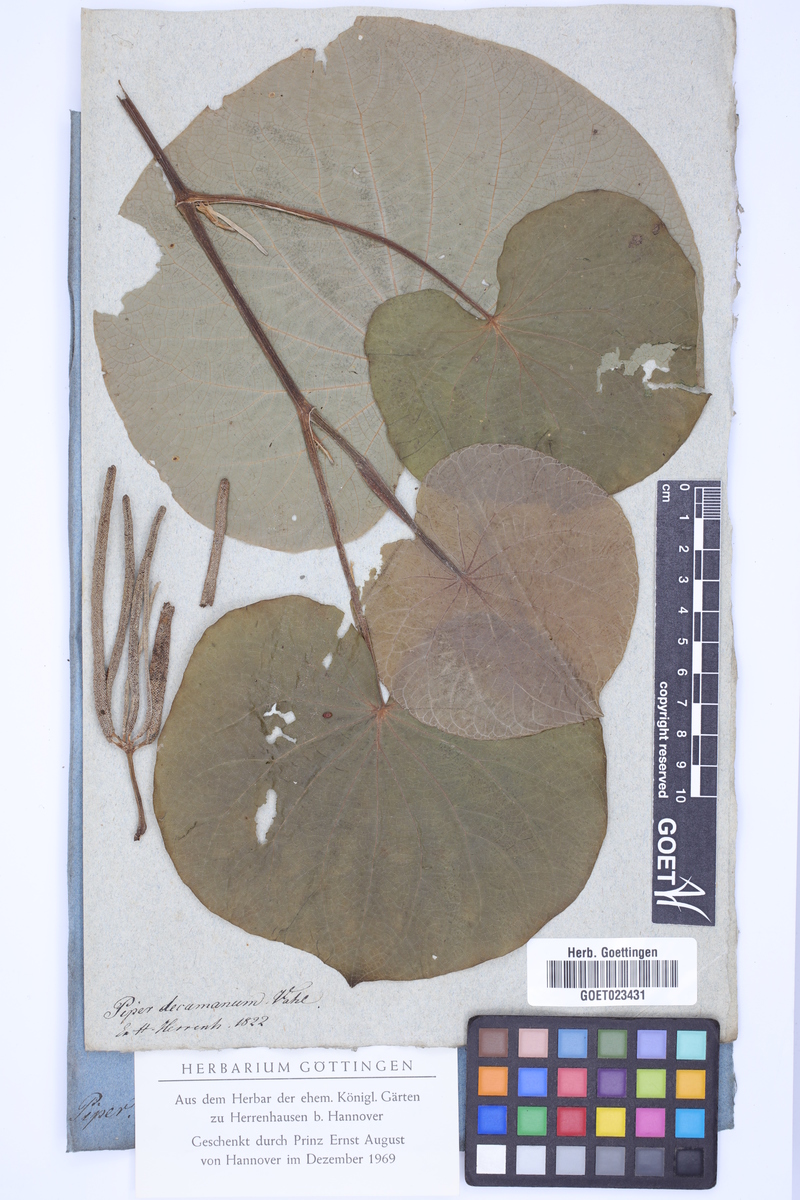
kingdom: Plantae
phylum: Tracheophyta
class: Magnoliopsida
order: Piperales
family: Piperaceae
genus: Macropiper
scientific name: Macropiper methysticum
